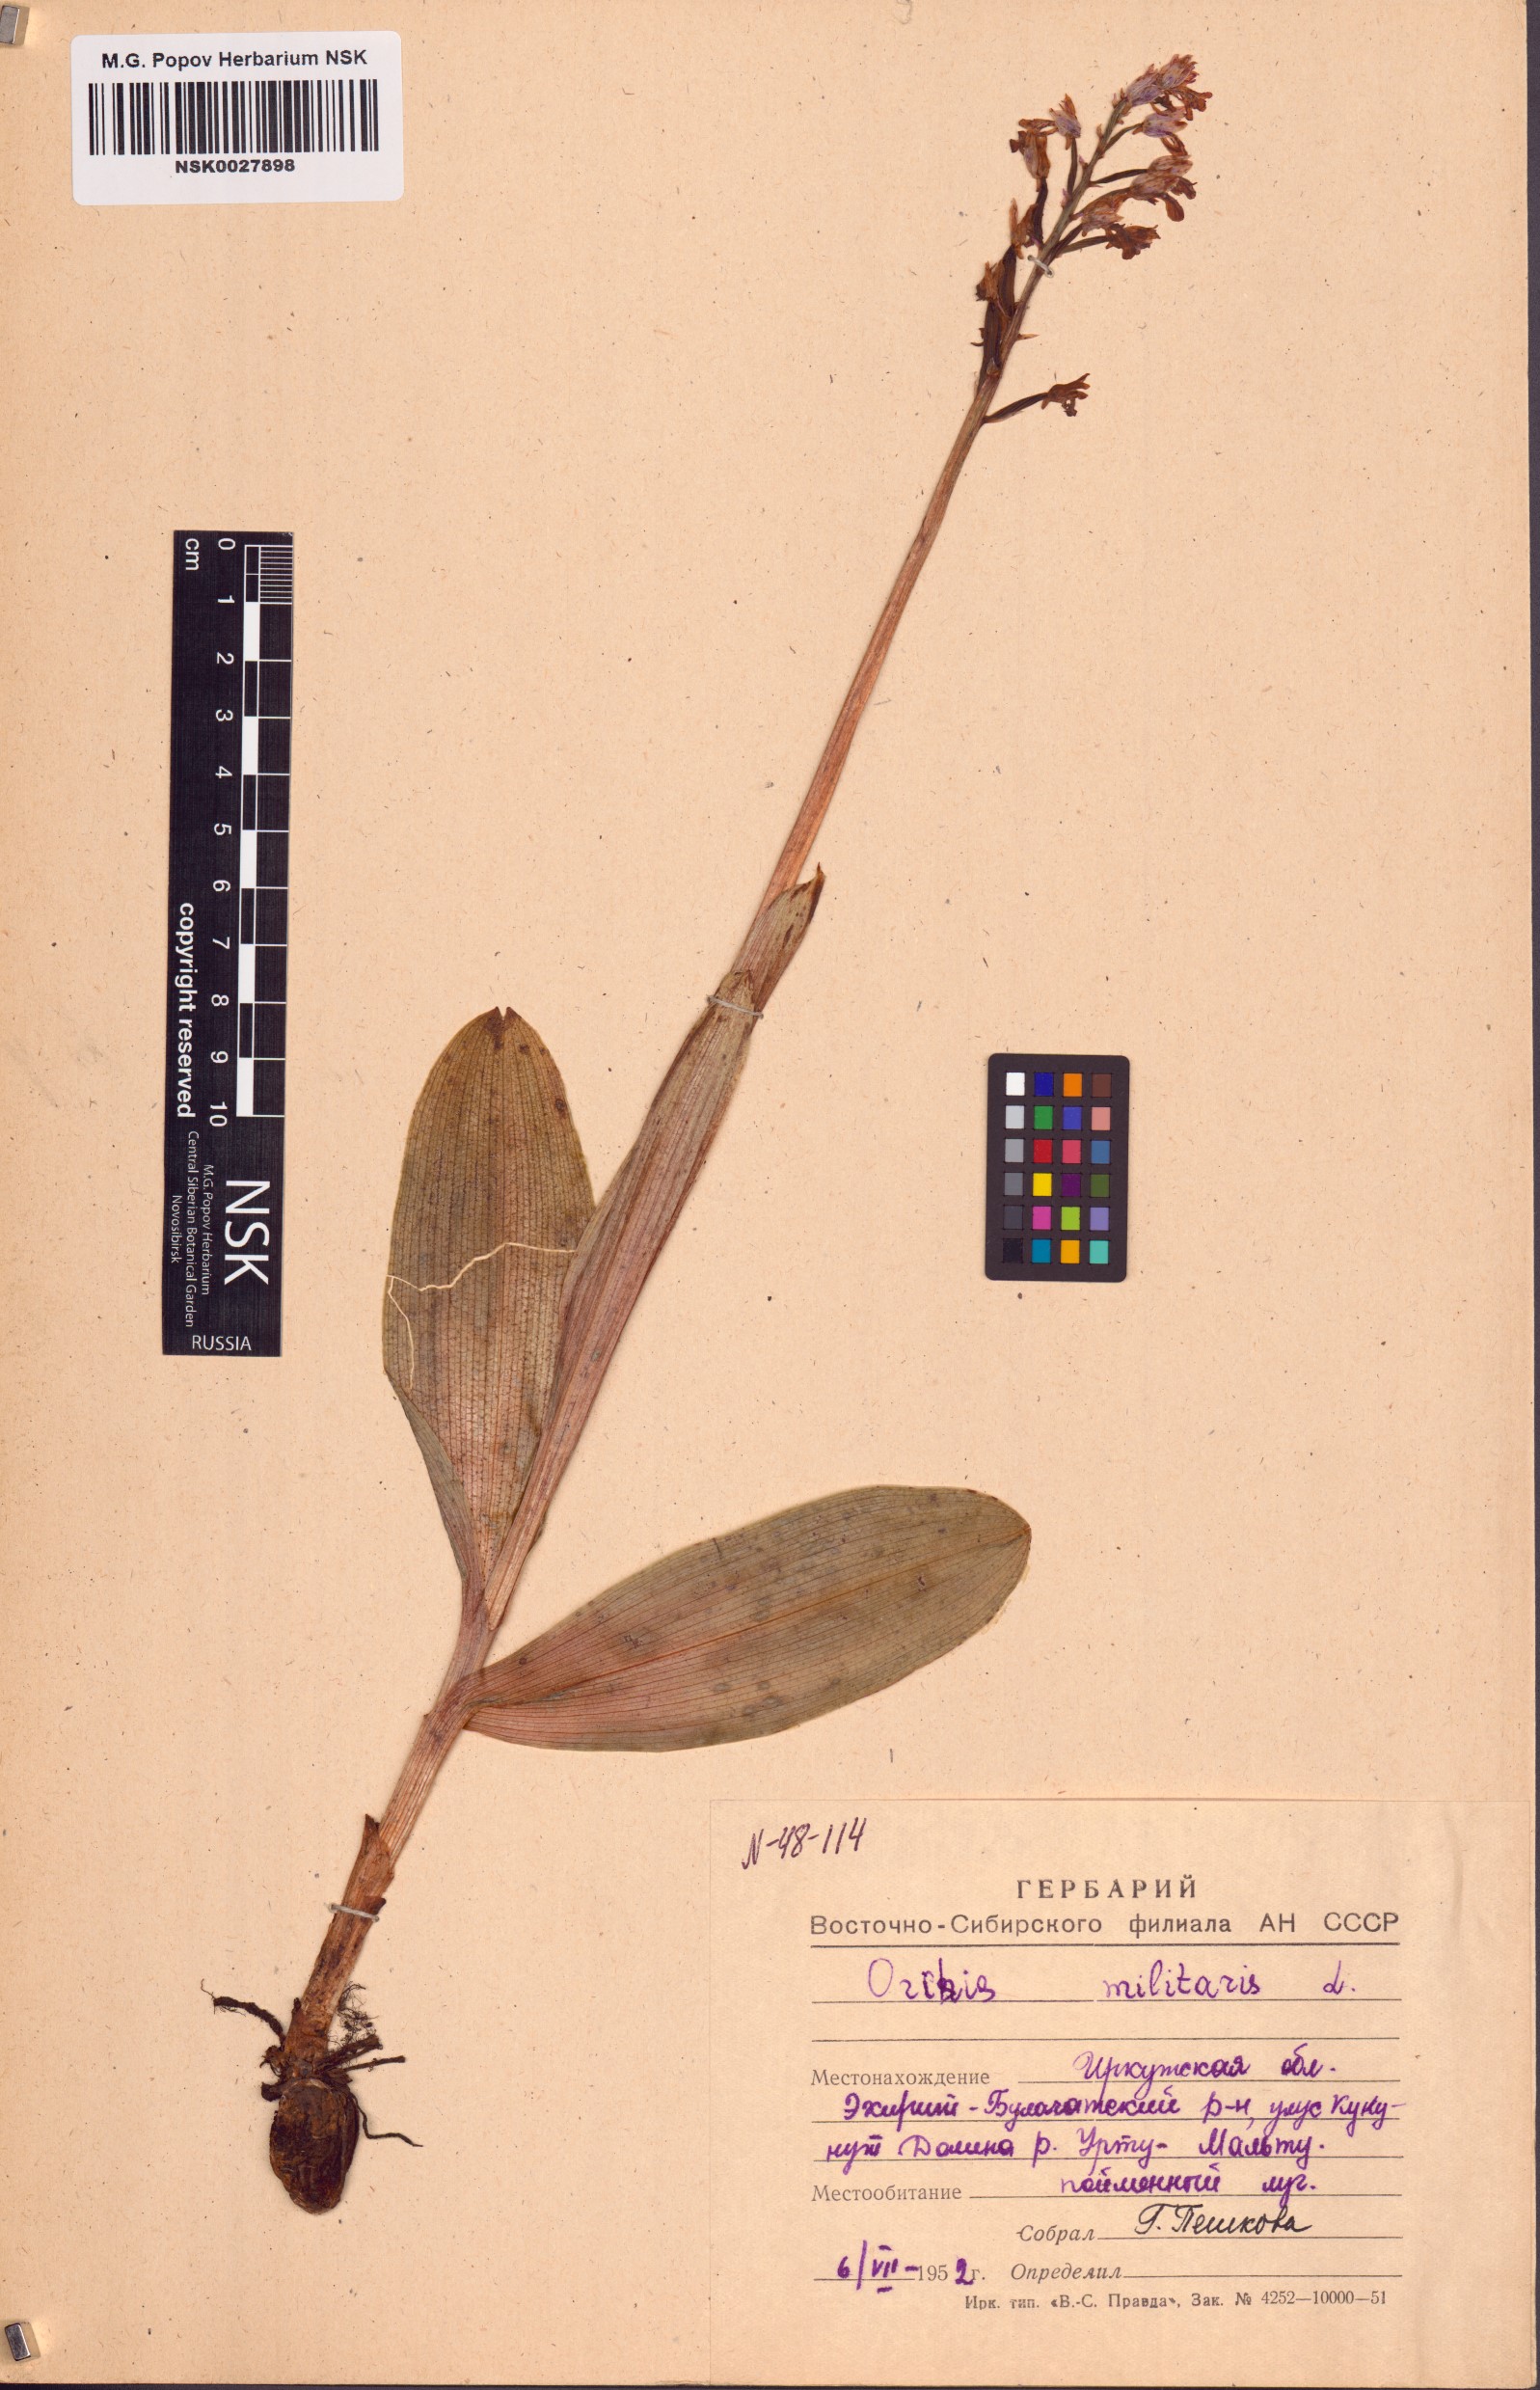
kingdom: Plantae
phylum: Tracheophyta
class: Liliopsida
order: Asparagales
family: Orchidaceae
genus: Orchis
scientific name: Orchis militaris
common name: Military orchid
